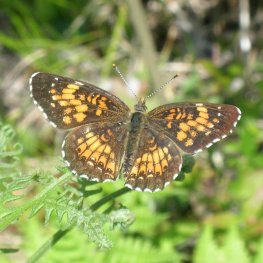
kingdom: Animalia
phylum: Arthropoda
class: Insecta
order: Lepidoptera
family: Nymphalidae
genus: Chlosyne
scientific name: Chlosyne harrisii
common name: Harris's Checkerspot
